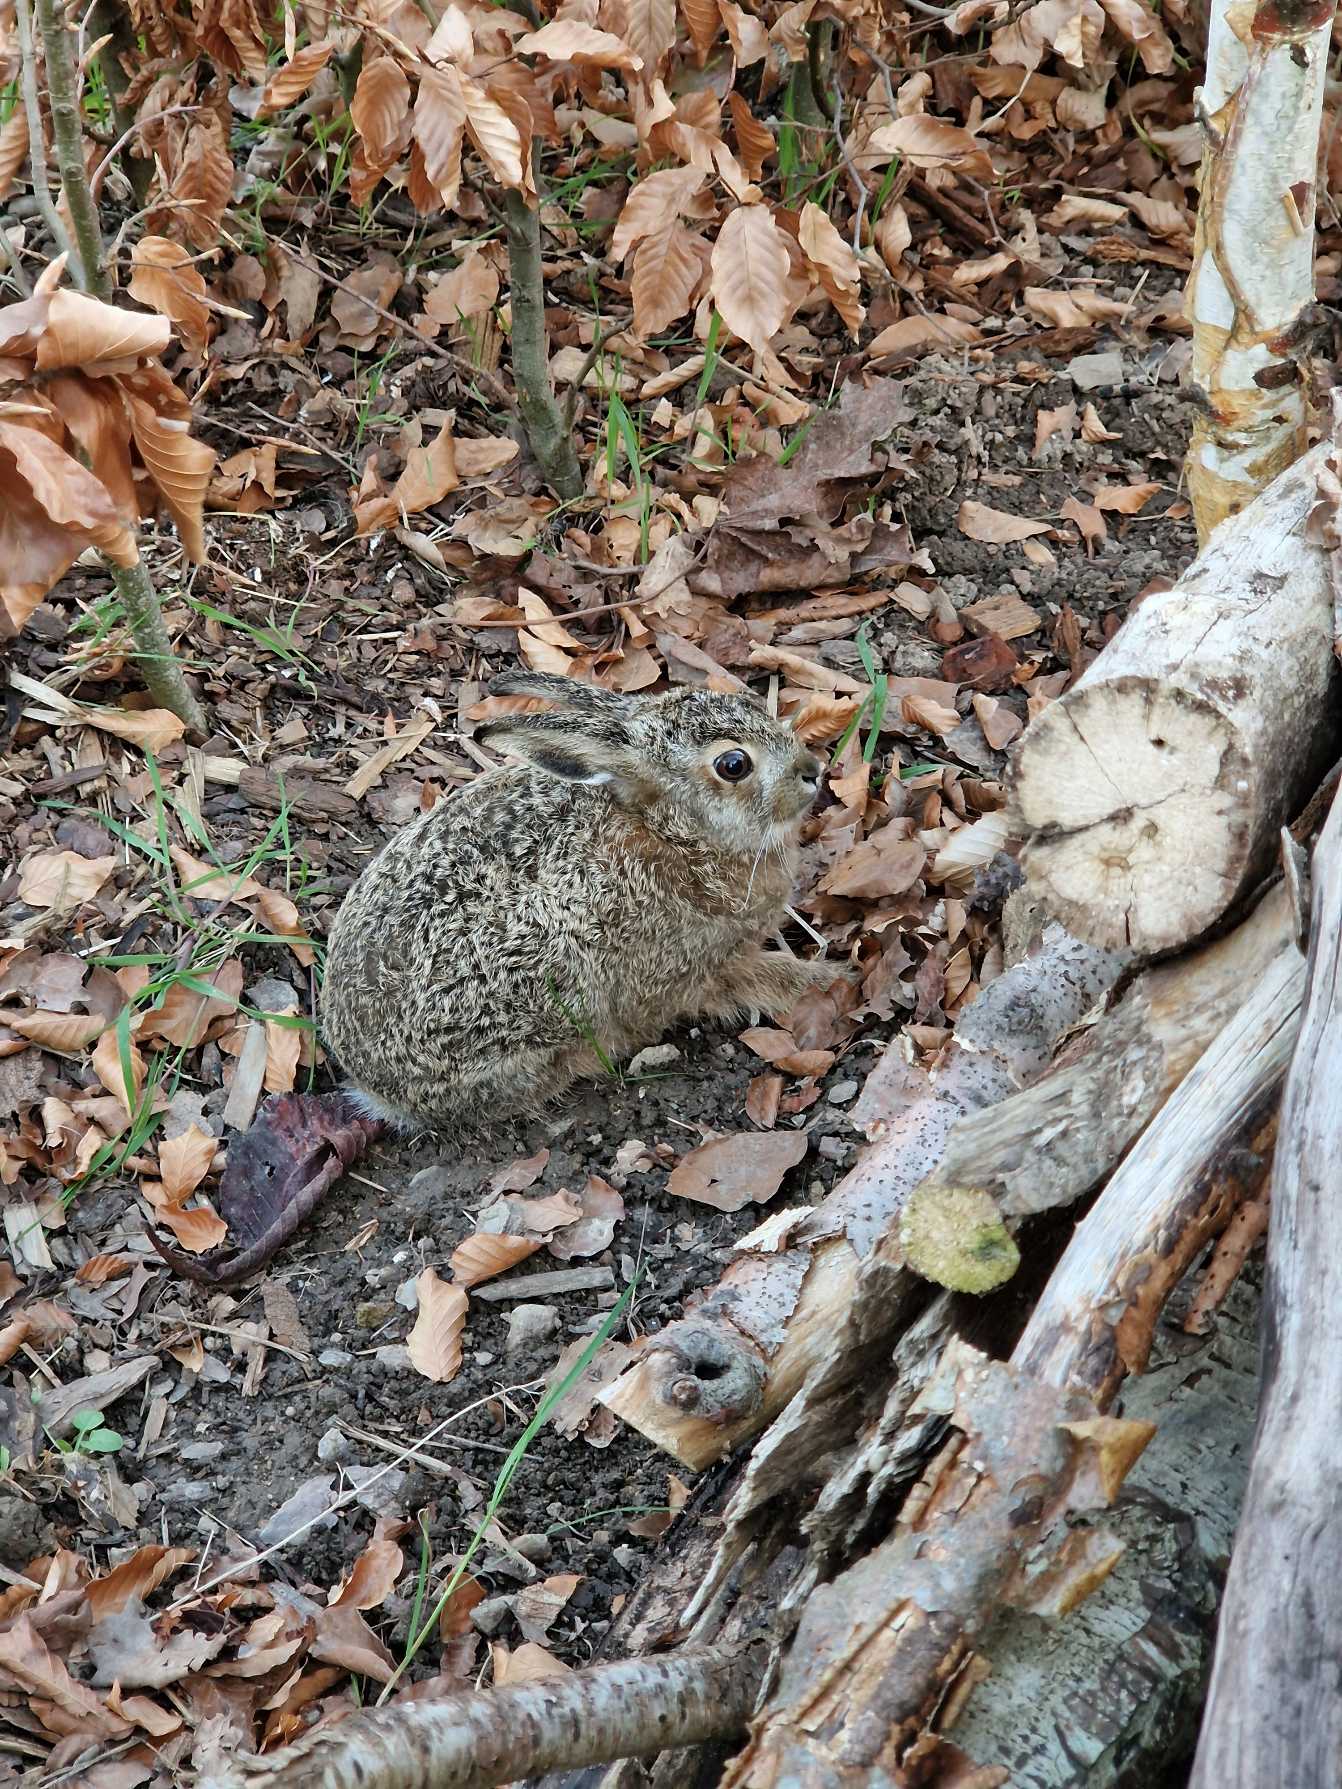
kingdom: Animalia
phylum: Chordata
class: Mammalia
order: Lagomorpha
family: Leporidae
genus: Lepus
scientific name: Lepus europaeus
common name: Hare
